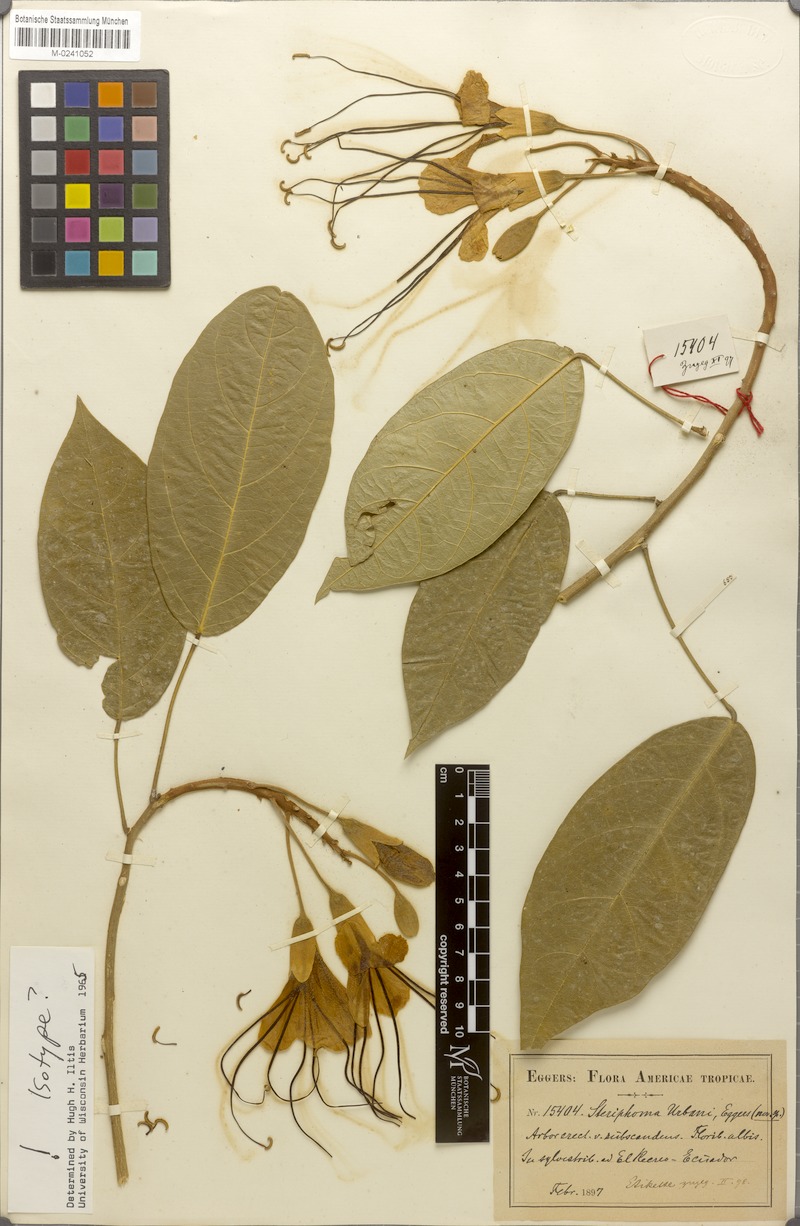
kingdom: Plantae
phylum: Tracheophyta
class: Magnoliopsida
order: Brassicales
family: Capparaceae
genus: Steriphoma
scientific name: Steriphoma urbani
